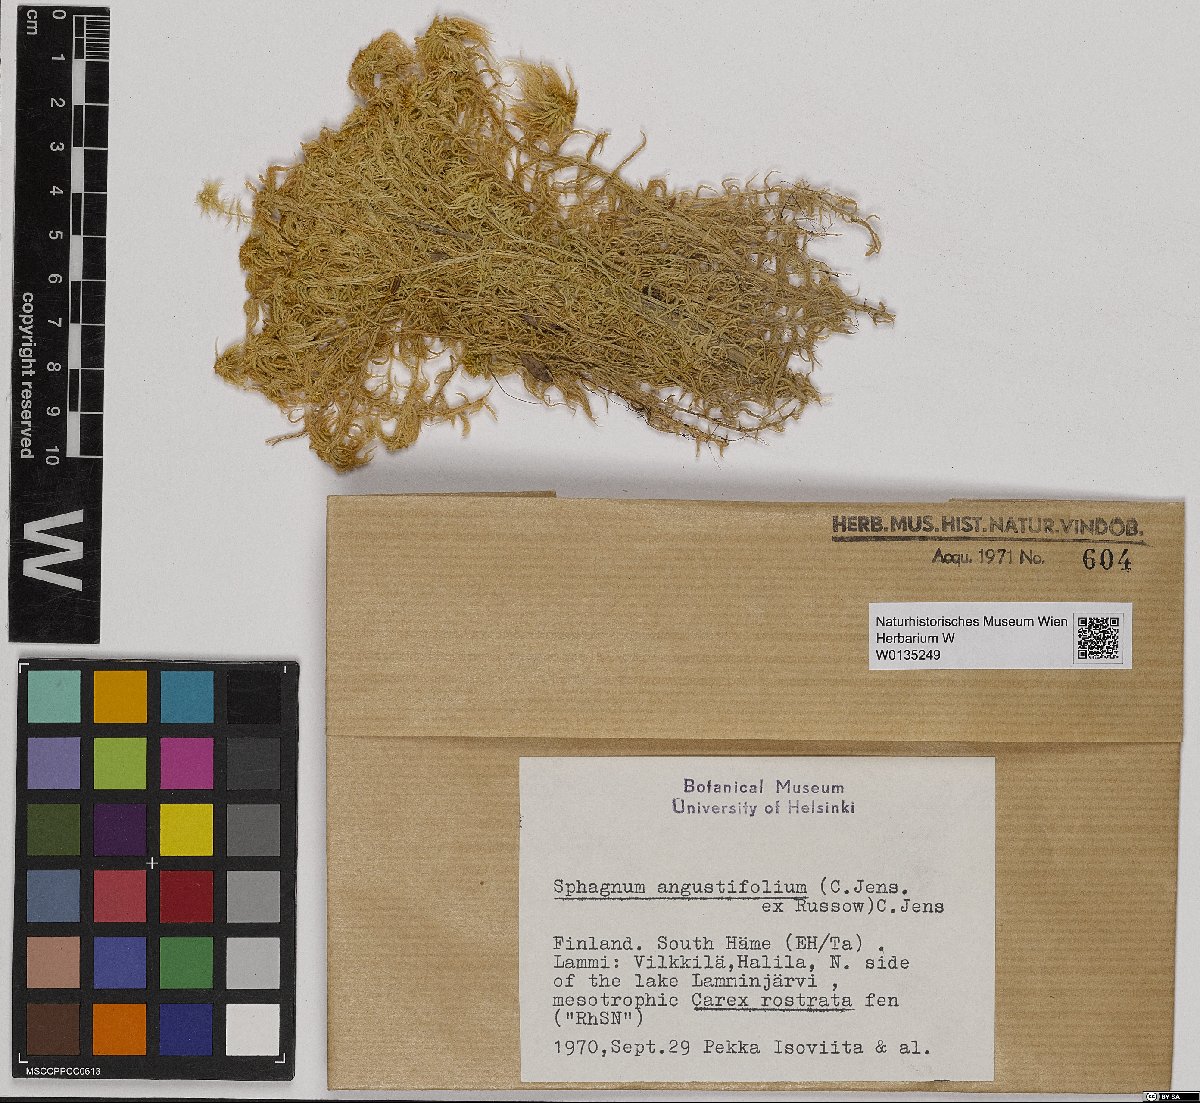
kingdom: Plantae
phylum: Bryophyta
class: Sphagnopsida
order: Sphagnales
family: Sphagnaceae
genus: Sphagnum
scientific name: Sphagnum angustifolium
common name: Narrow-leaved peat moss
